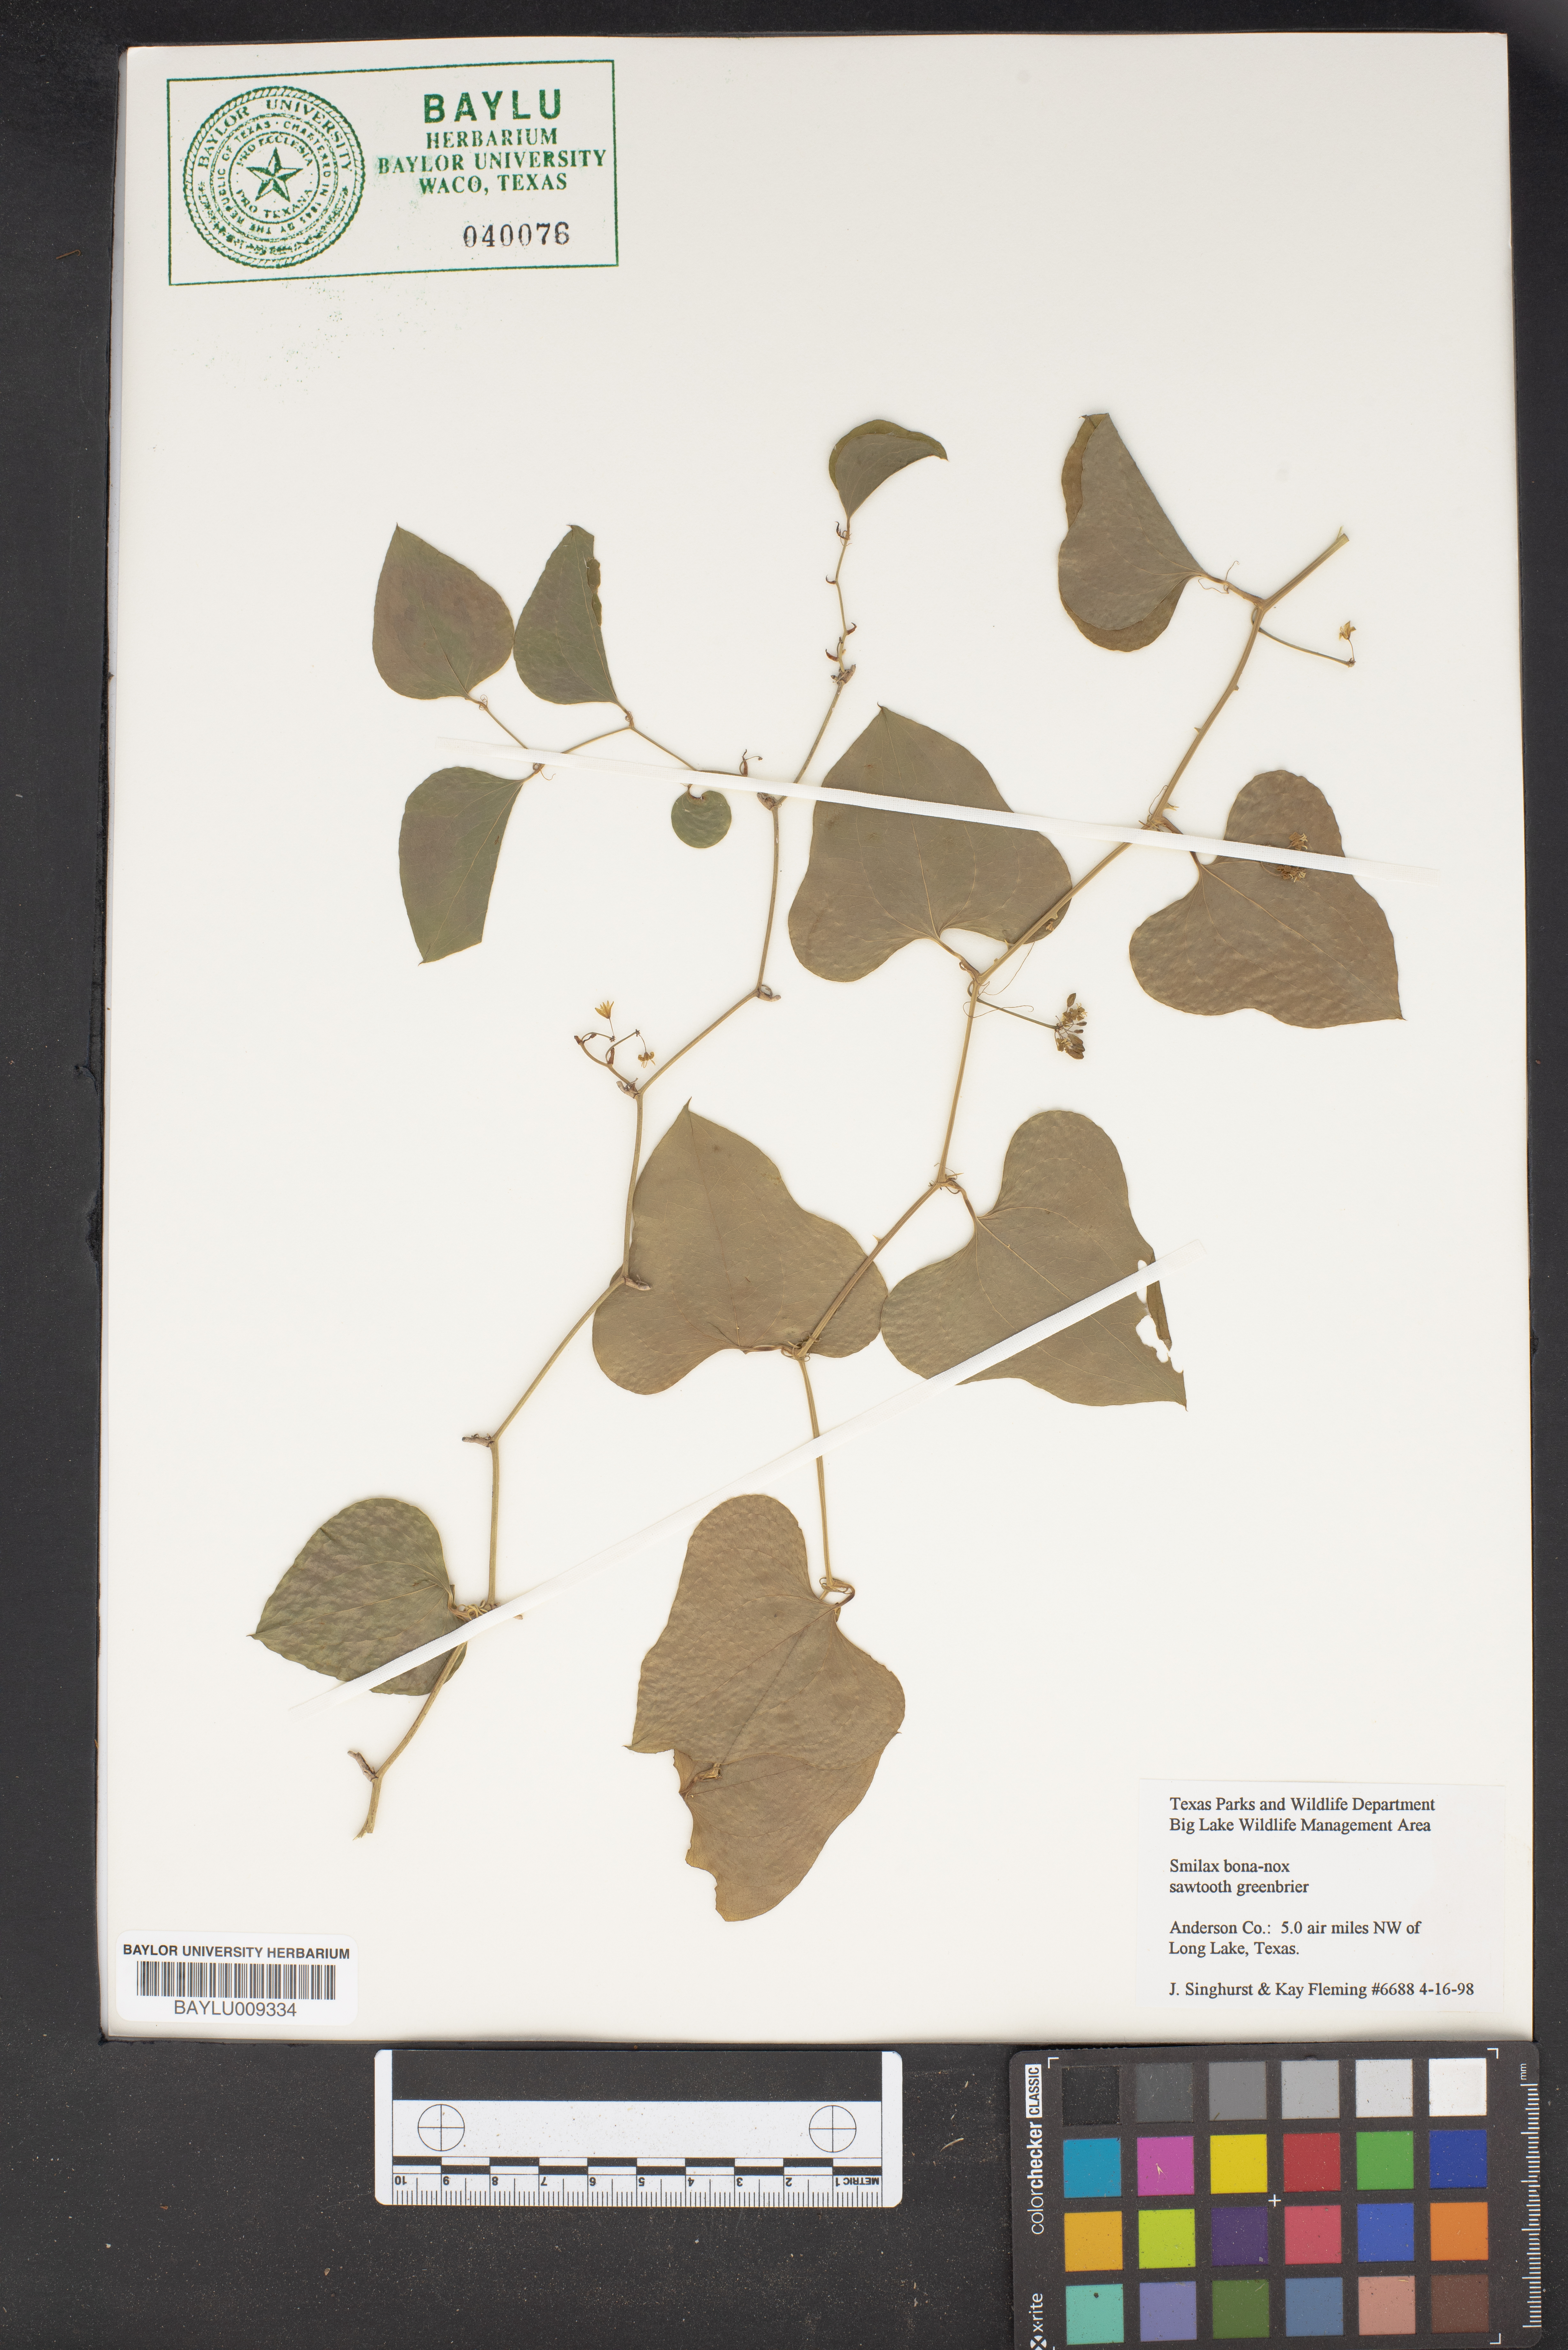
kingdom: Plantae
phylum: Tracheophyta
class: Liliopsida
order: Liliales
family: Smilacaceae
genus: Smilax
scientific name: Smilax bona-nox
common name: Catbrier
